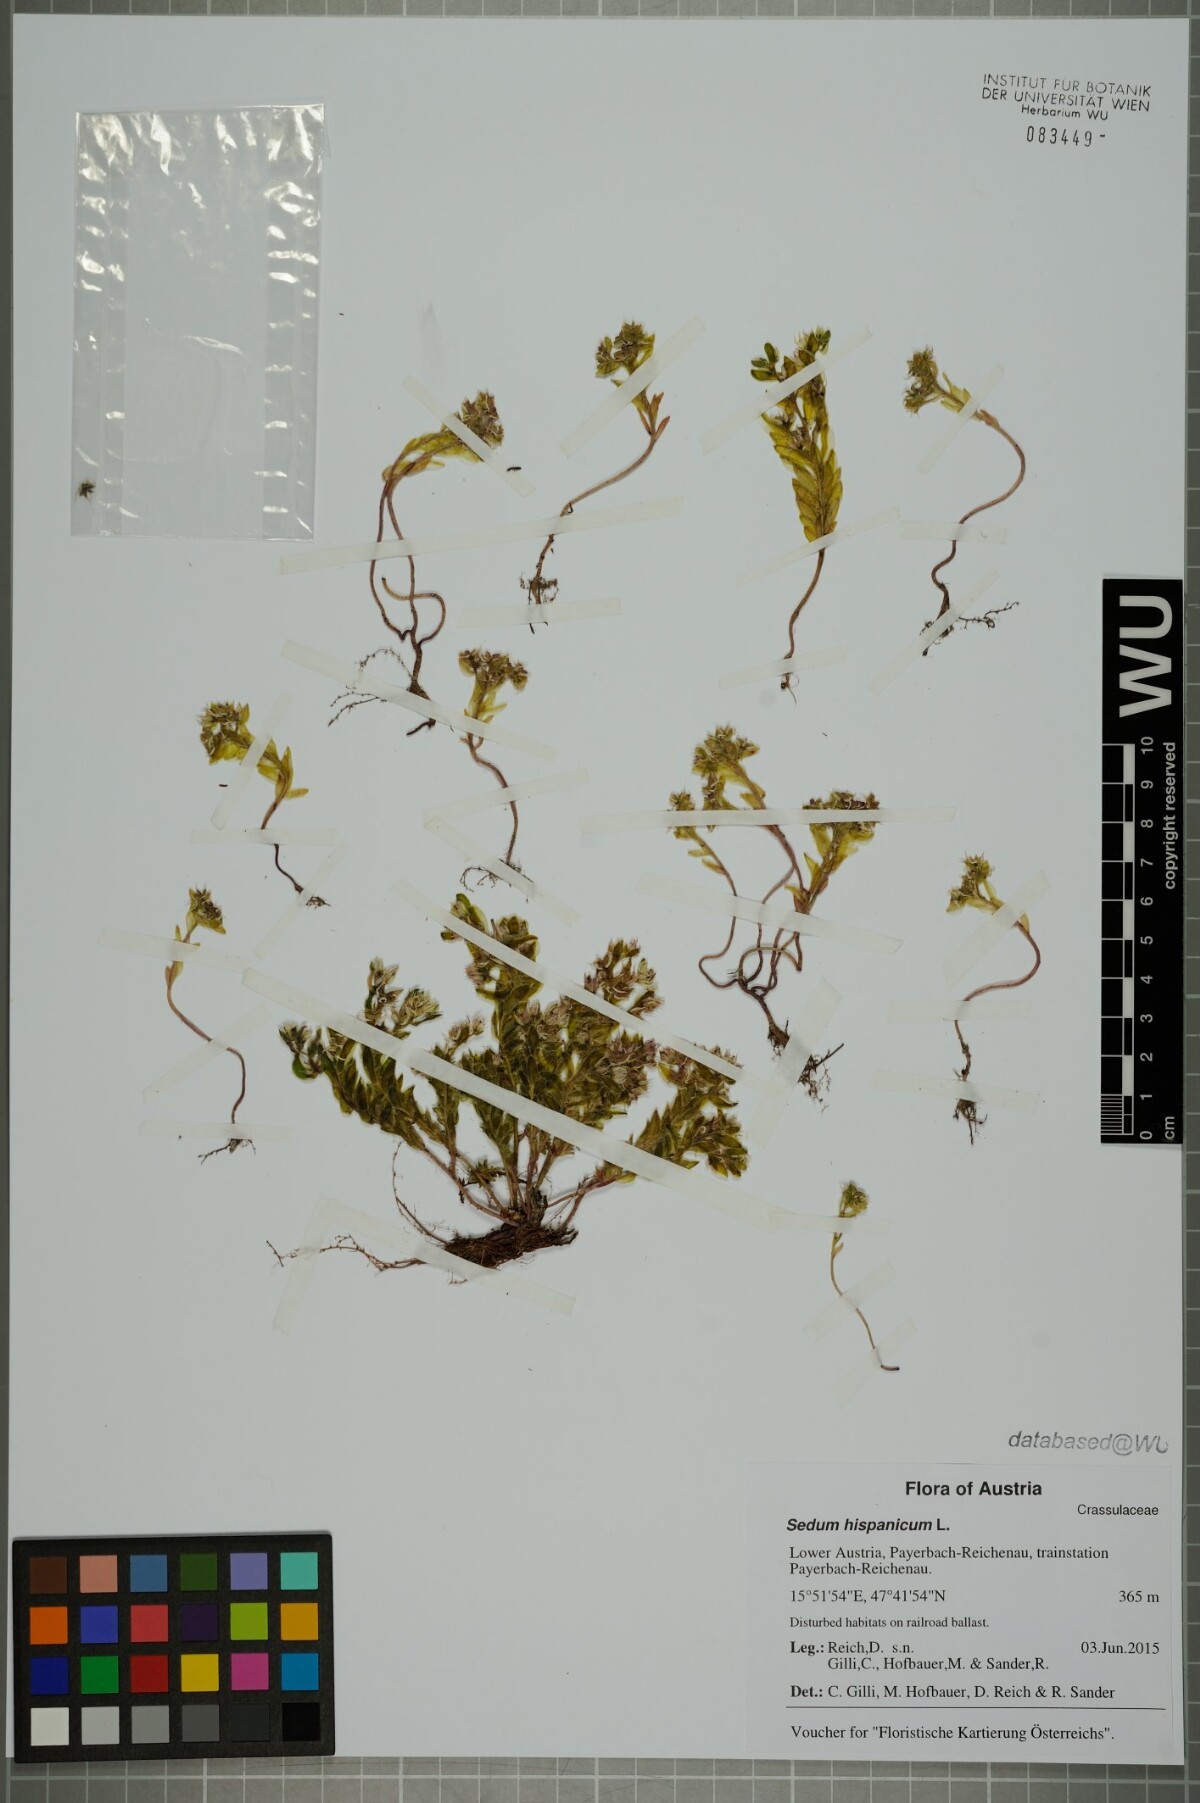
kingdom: Plantae
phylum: Tracheophyta
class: Magnoliopsida
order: Saxifragales
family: Crassulaceae
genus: Sedum
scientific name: Sedum hispanicum
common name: Spanish stonecrop
